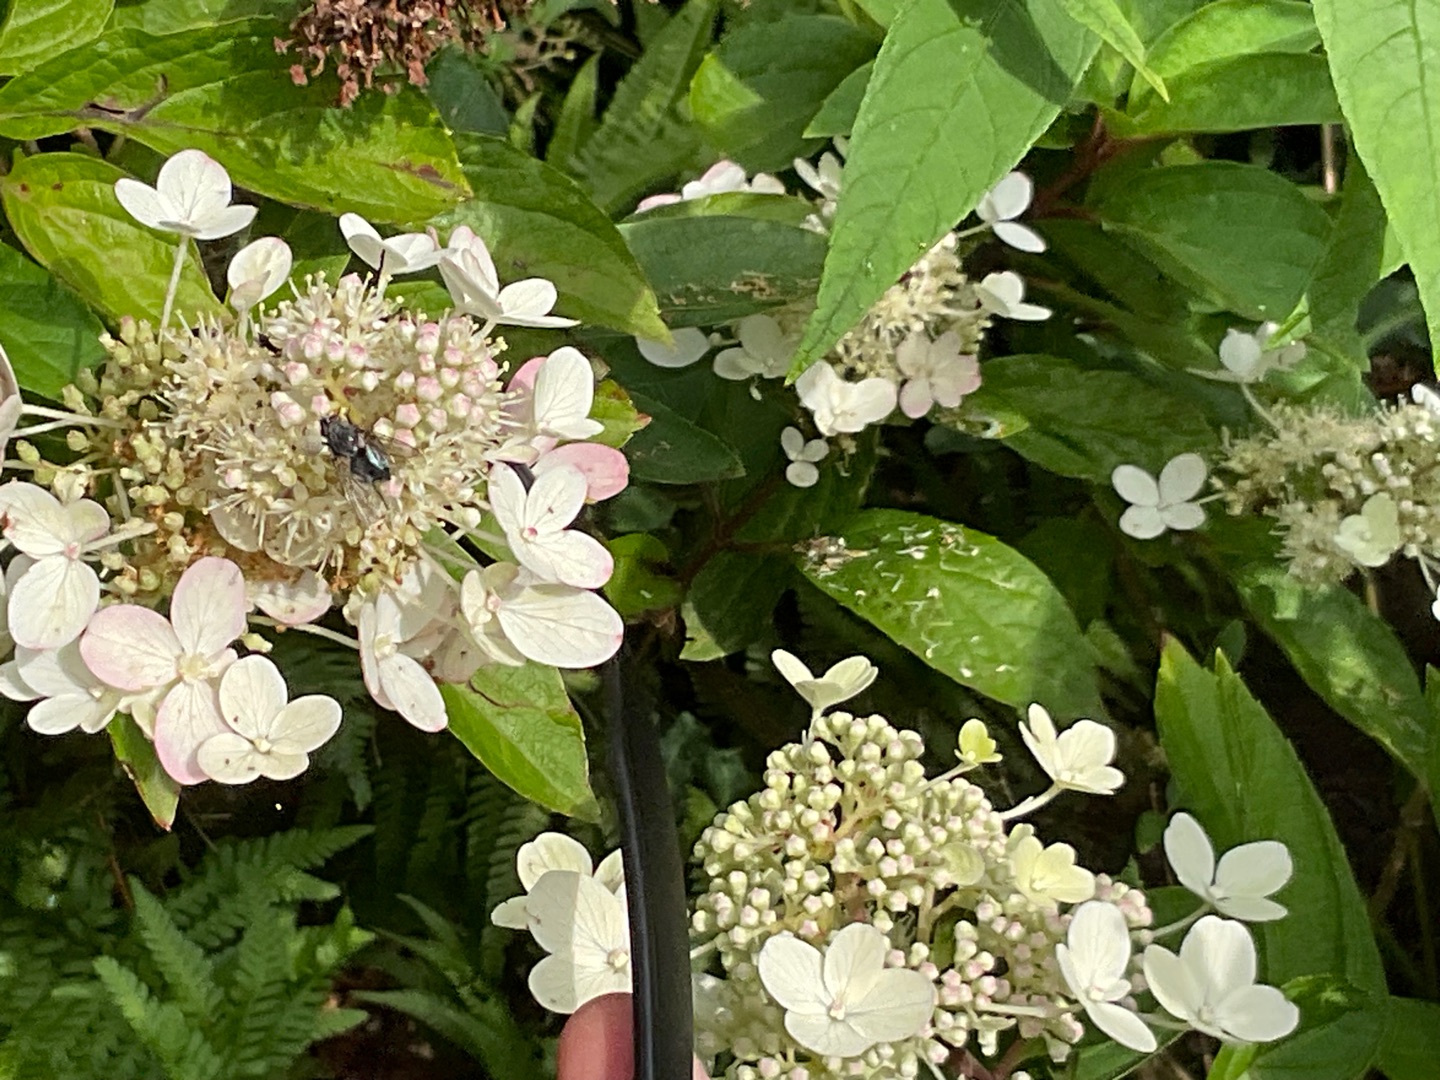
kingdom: Plantae
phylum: Tracheophyta
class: Magnoliopsida
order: Cornales
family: Hydrangeaceae
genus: Hydrangea
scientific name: Hydrangea
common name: Hydrangea
